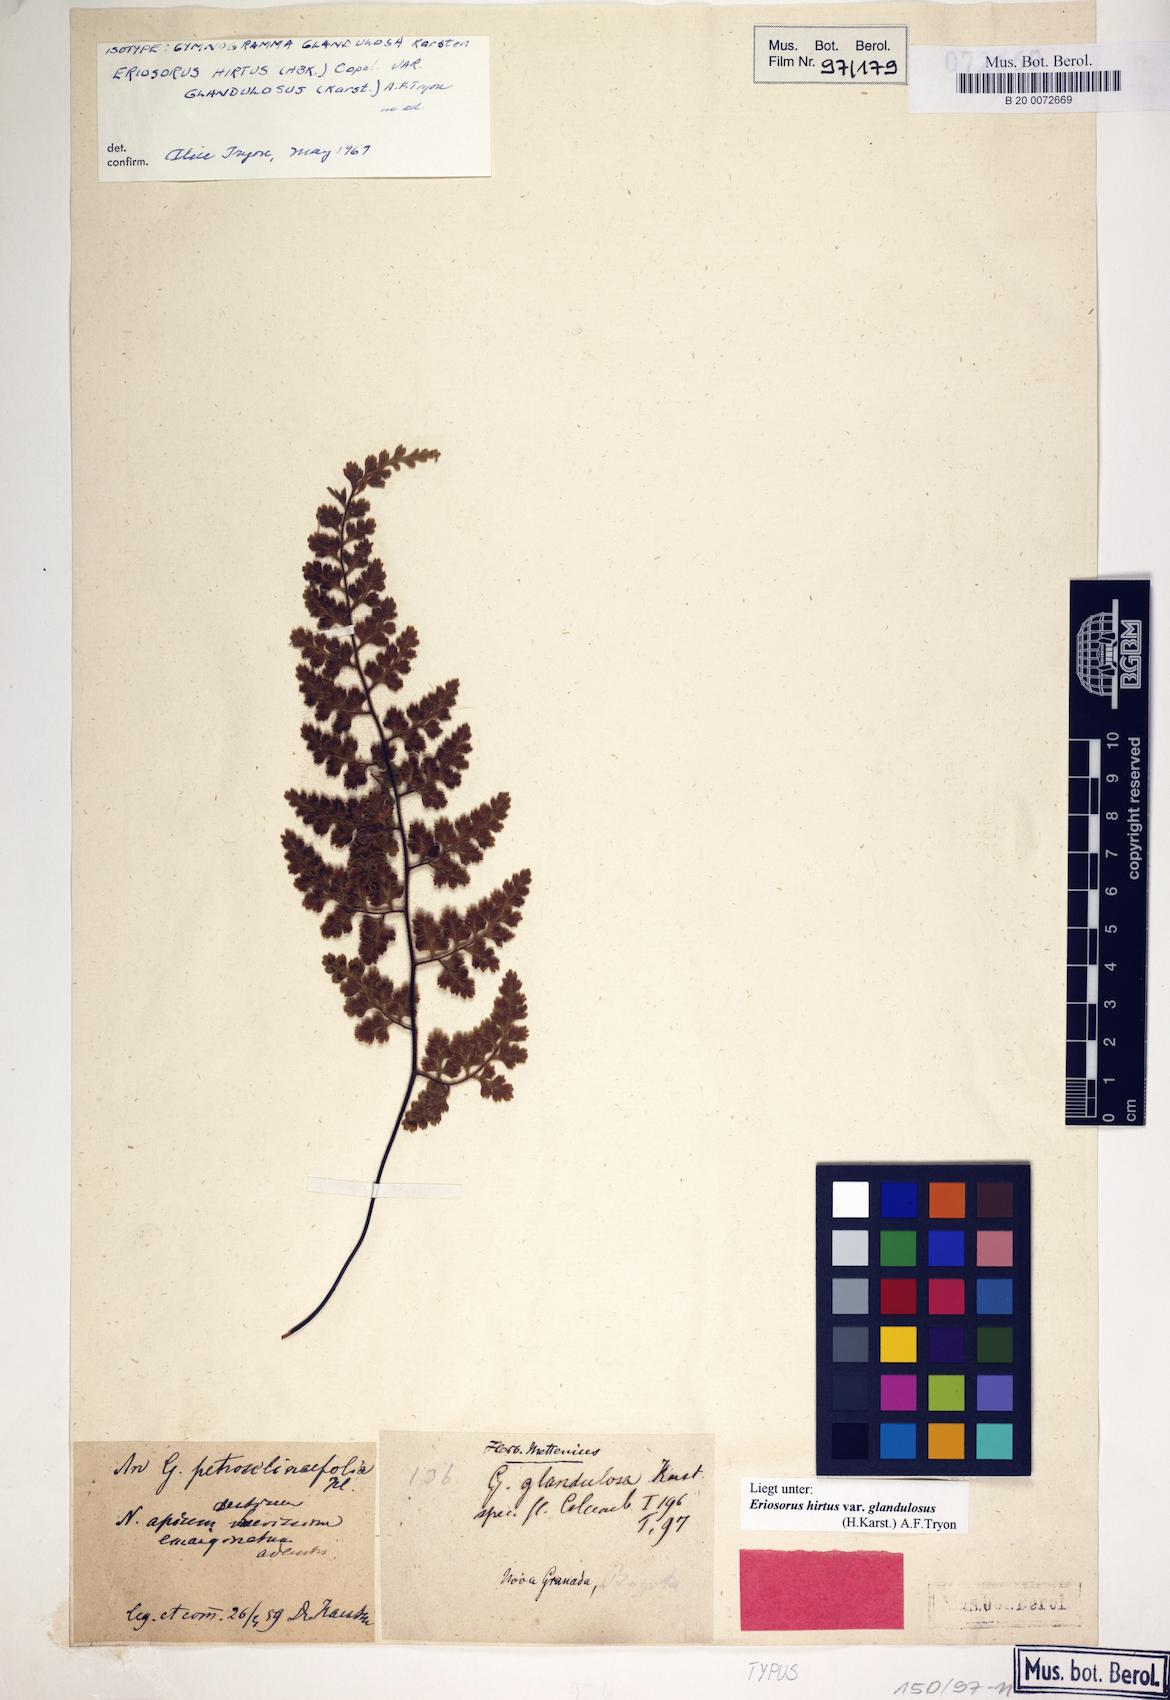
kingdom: Plantae
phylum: Tracheophyta
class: Polypodiopsida
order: Polypodiales
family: Pteridaceae
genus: Jamesonia
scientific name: Jamesonia hirta
